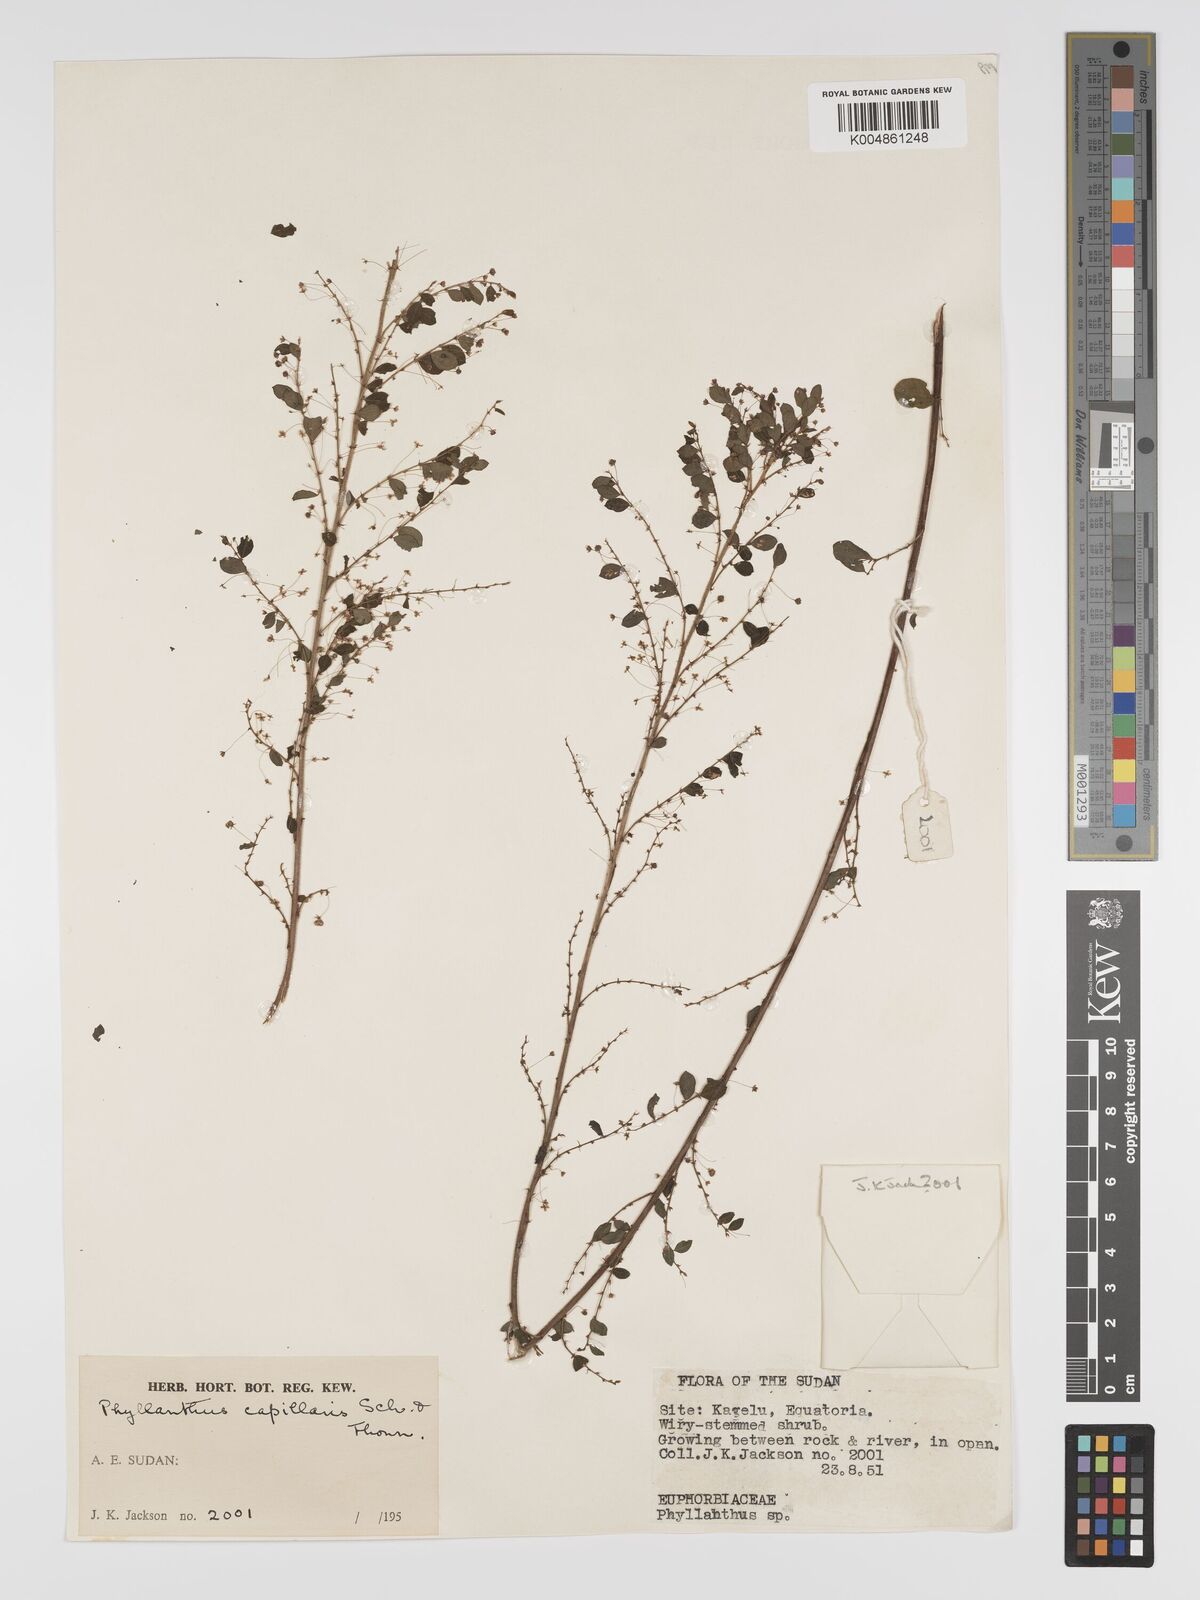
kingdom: Plantae
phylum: Tracheophyta
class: Magnoliopsida
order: Malpighiales
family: Phyllanthaceae
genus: Phyllanthus
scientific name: Phyllanthus nummulariifolius
